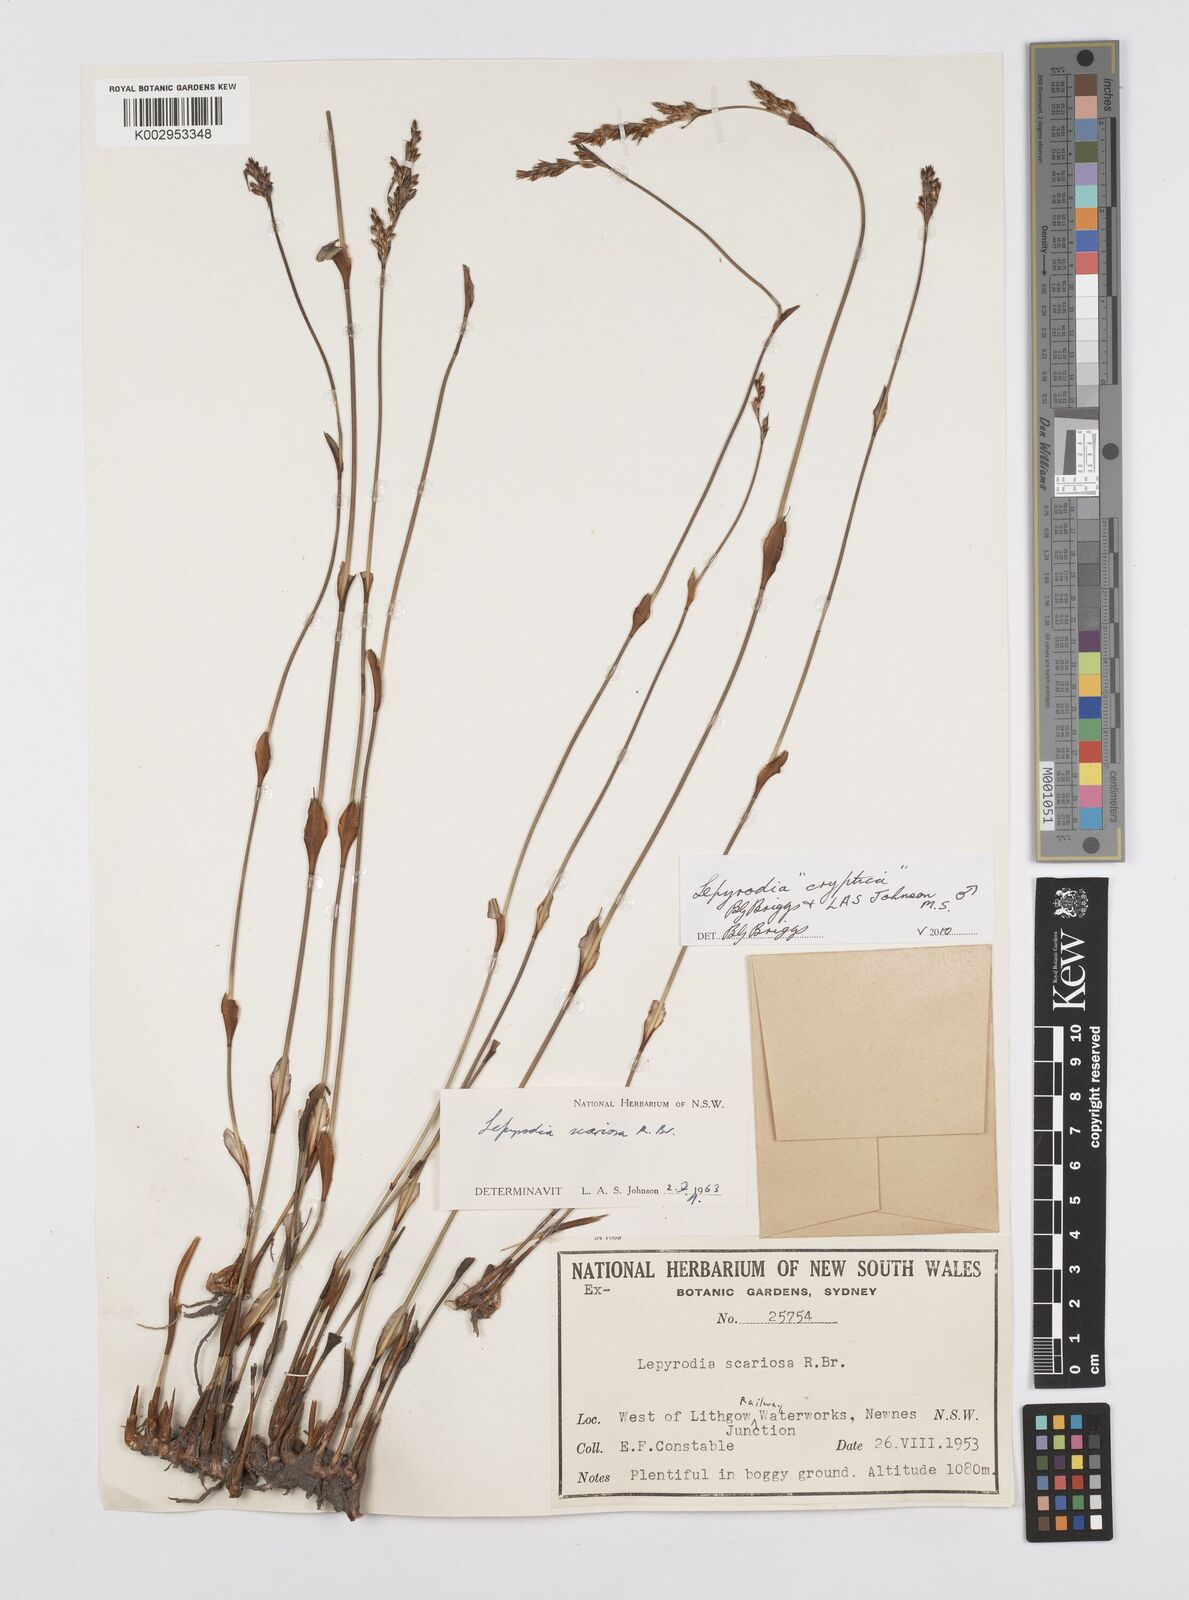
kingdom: Plantae
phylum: Tracheophyta
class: Liliopsida
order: Poales
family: Restionaceae
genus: Lepyrodia
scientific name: Lepyrodia cryptica
